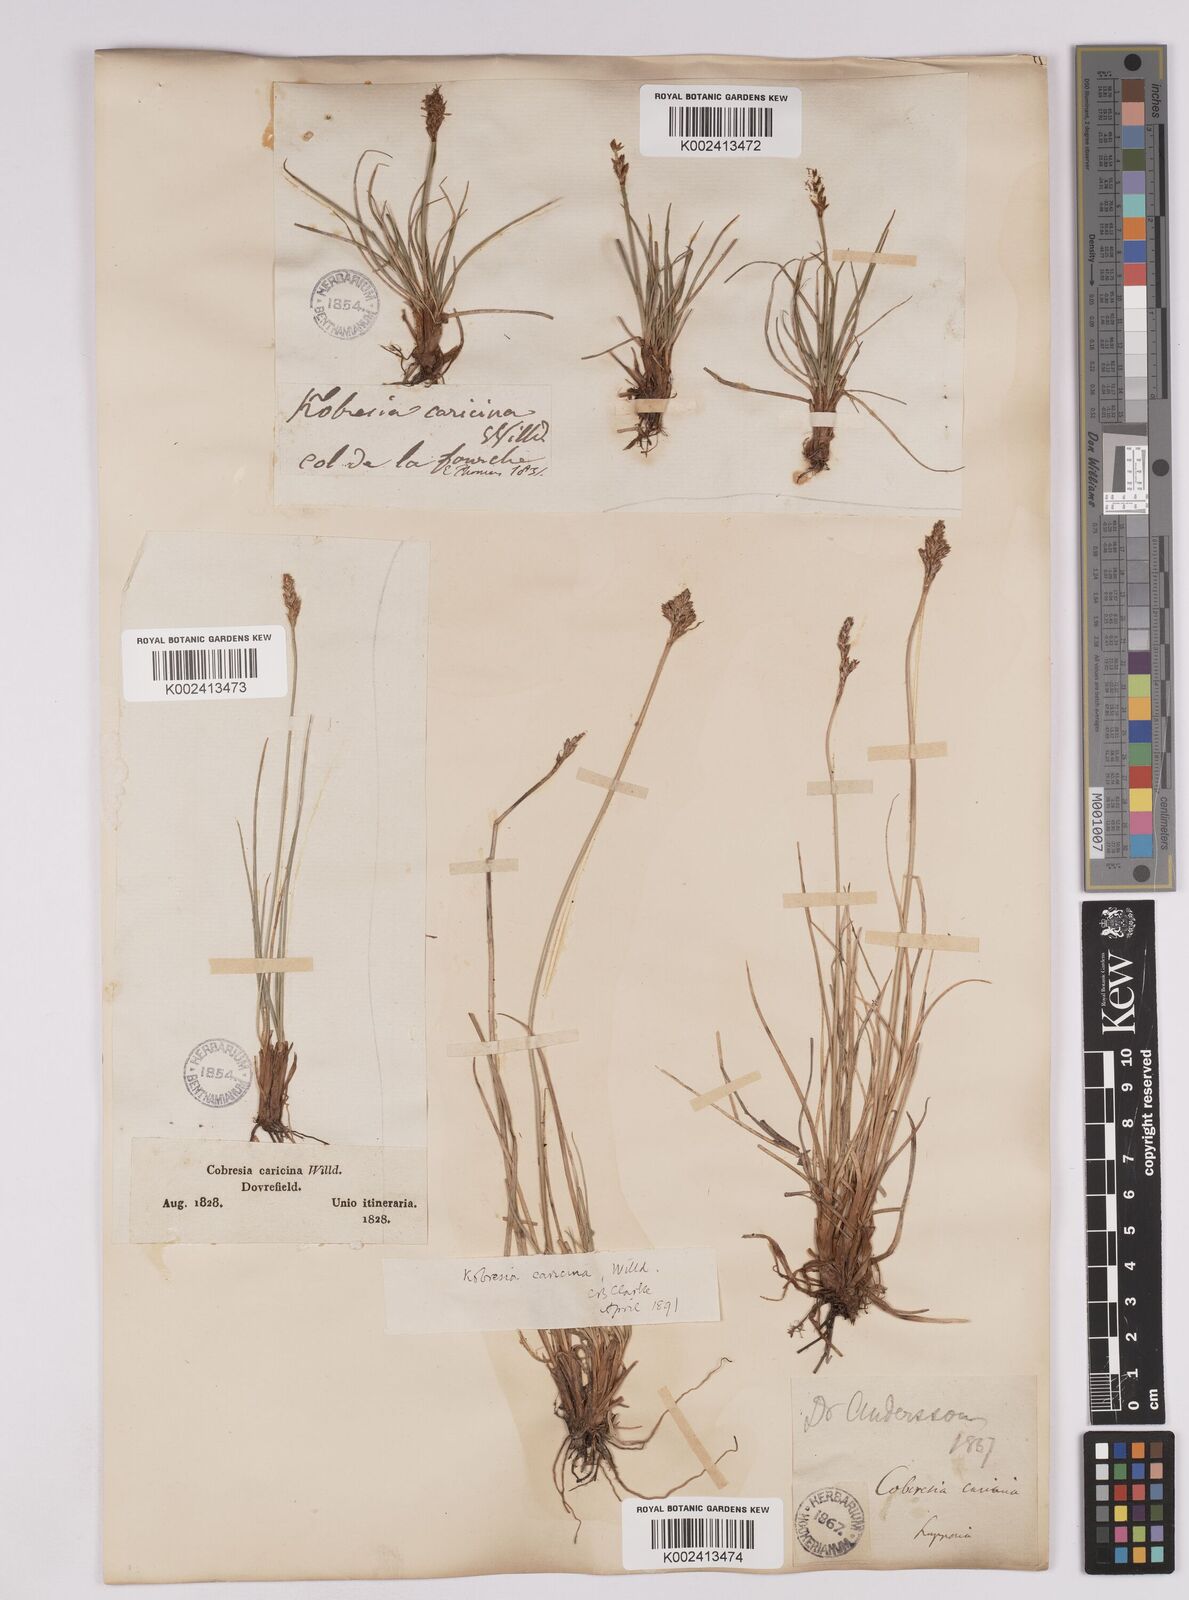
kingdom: Plantae
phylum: Tracheophyta
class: Liliopsida
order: Poales
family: Cyperaceae
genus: Carex
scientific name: Carex simpliciuscula
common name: Simple bog sedge
